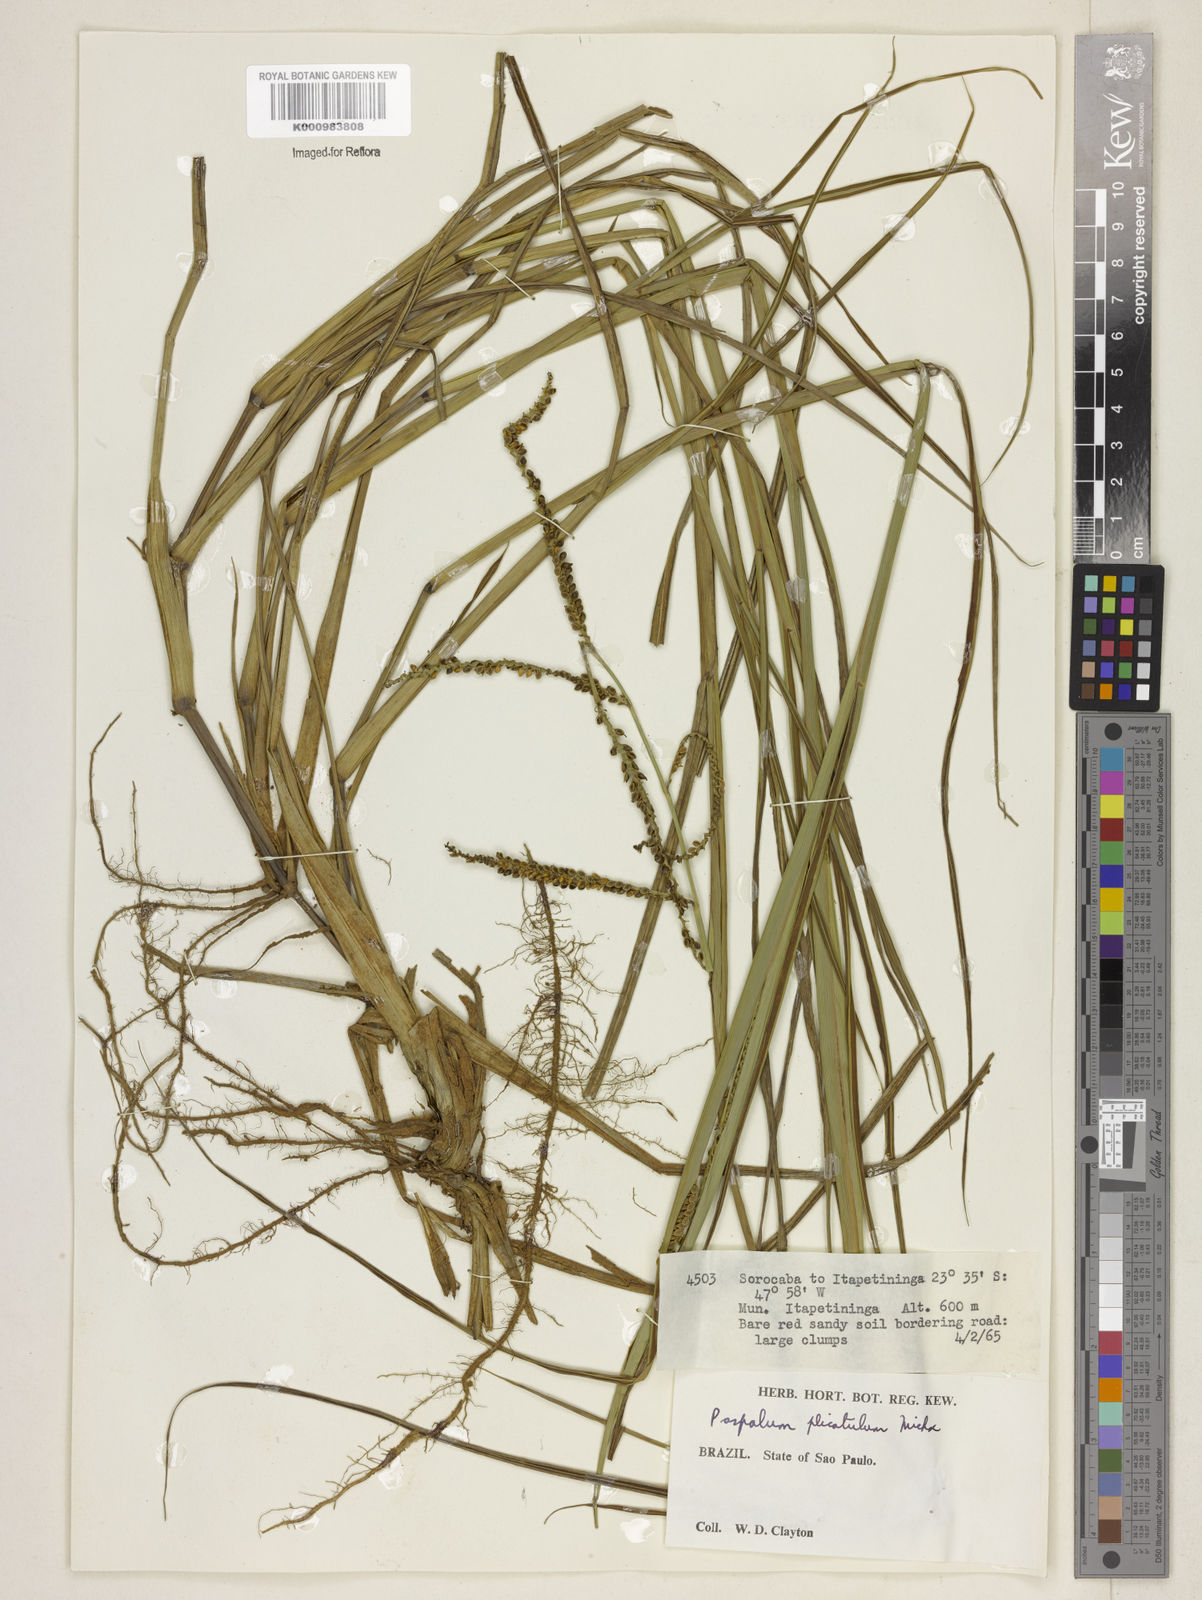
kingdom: Plantae
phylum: Tracheophyta
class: Liliopsida
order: Poales
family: Poaceae
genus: Paspalum
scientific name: Paspalum plicatulum
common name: Top paspalum
